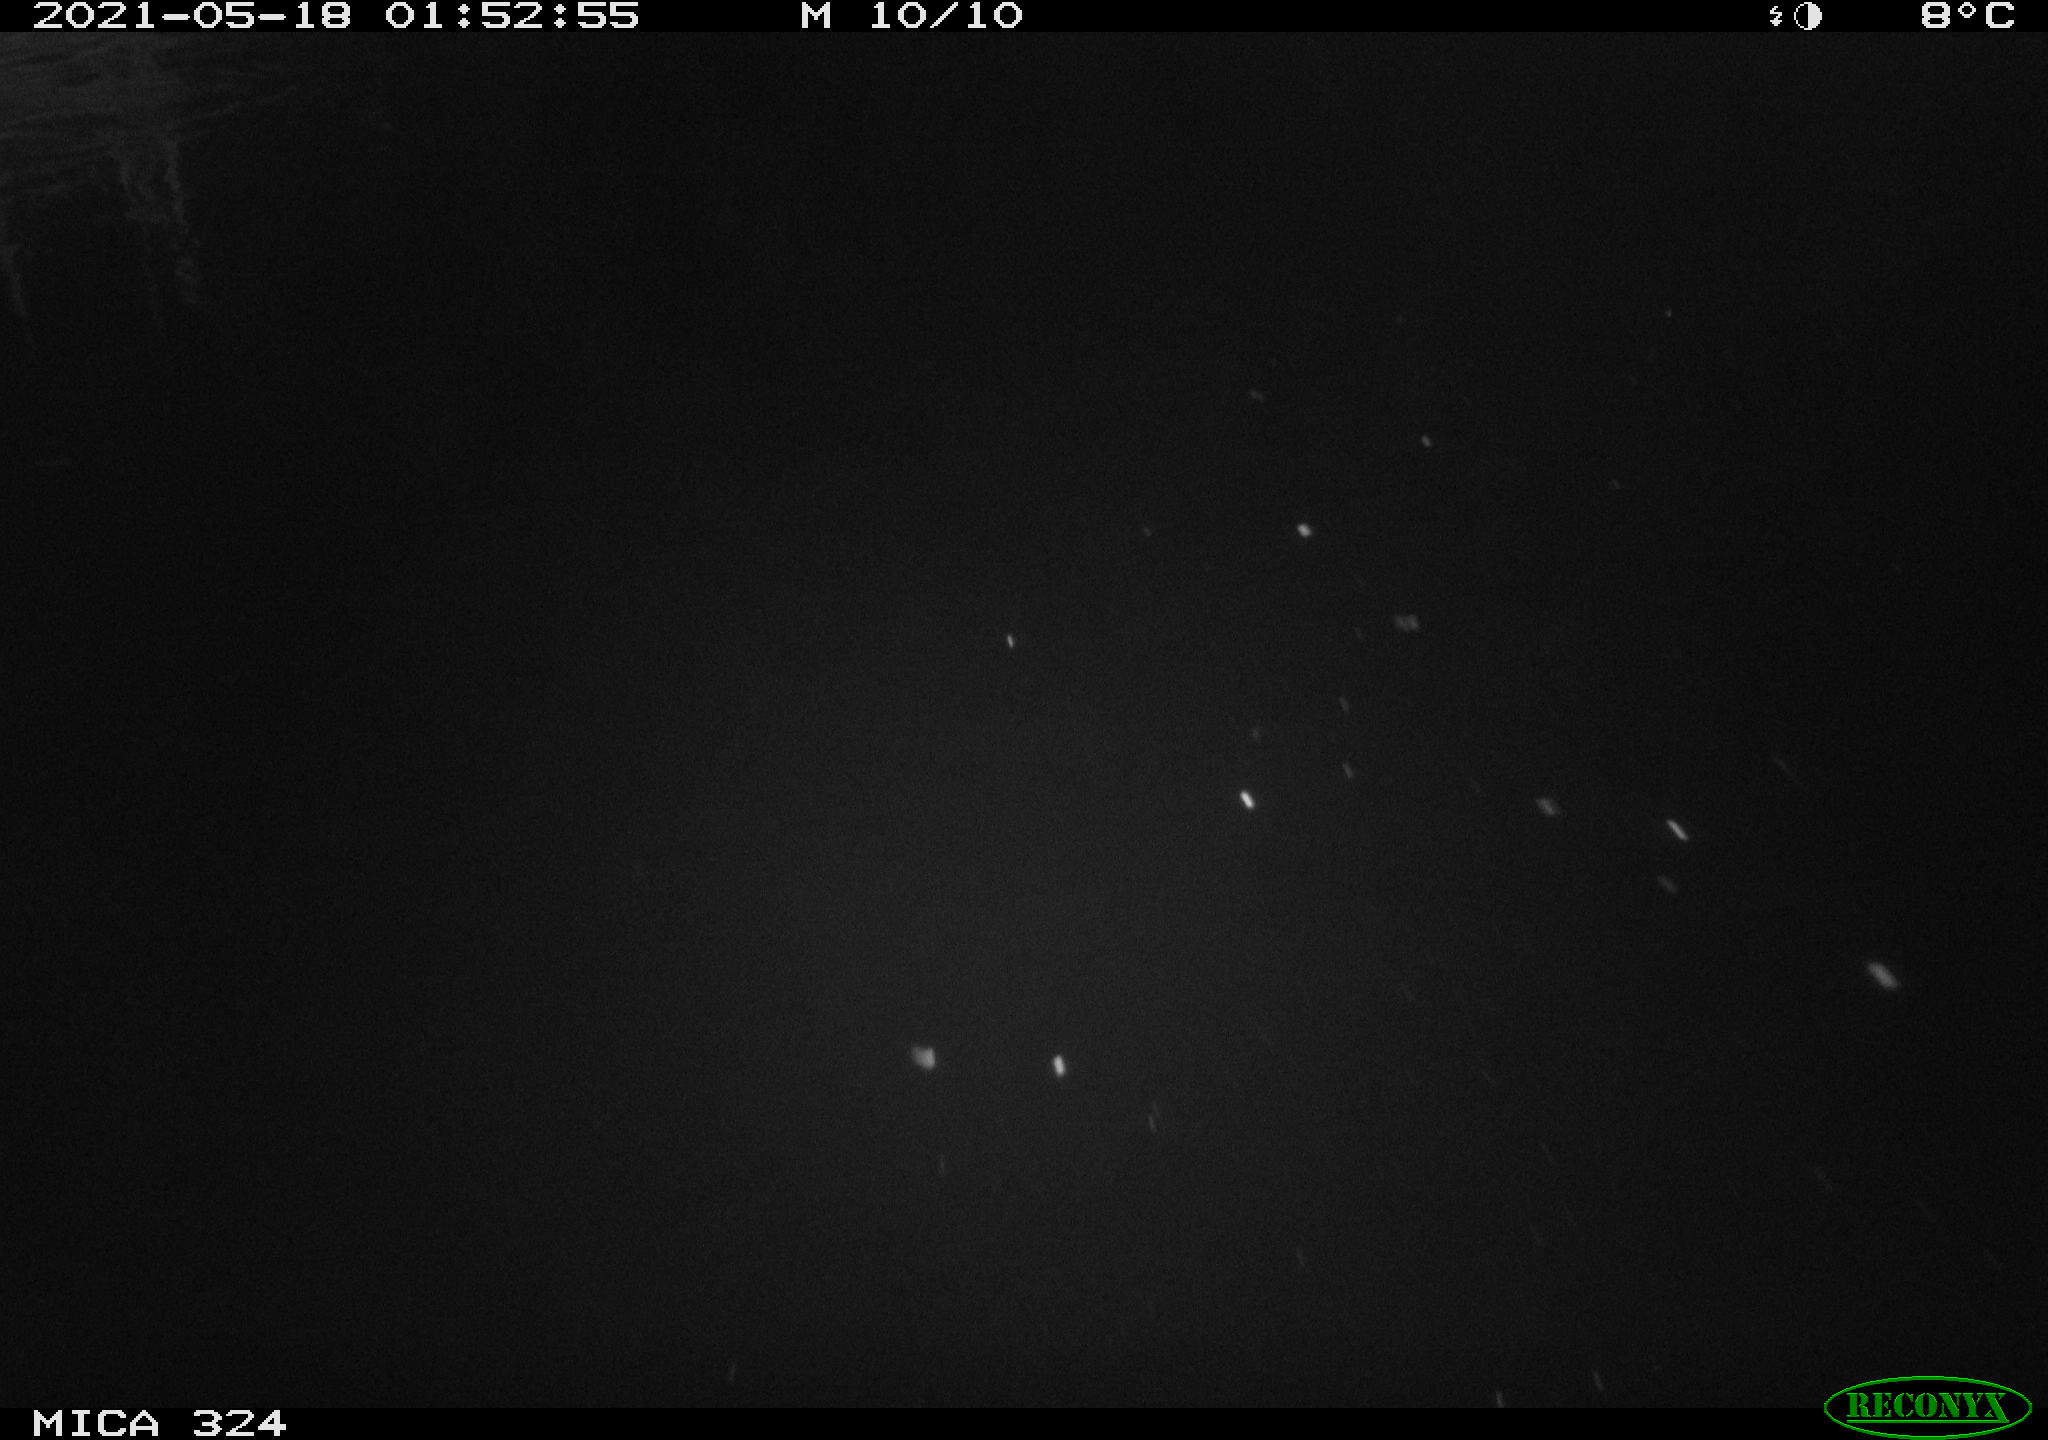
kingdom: Animalia
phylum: Chordata
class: Mammalia
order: Rodentia
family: Cricetidae
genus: Ondatra
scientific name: Ondatra zibethicus
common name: Muskrat
